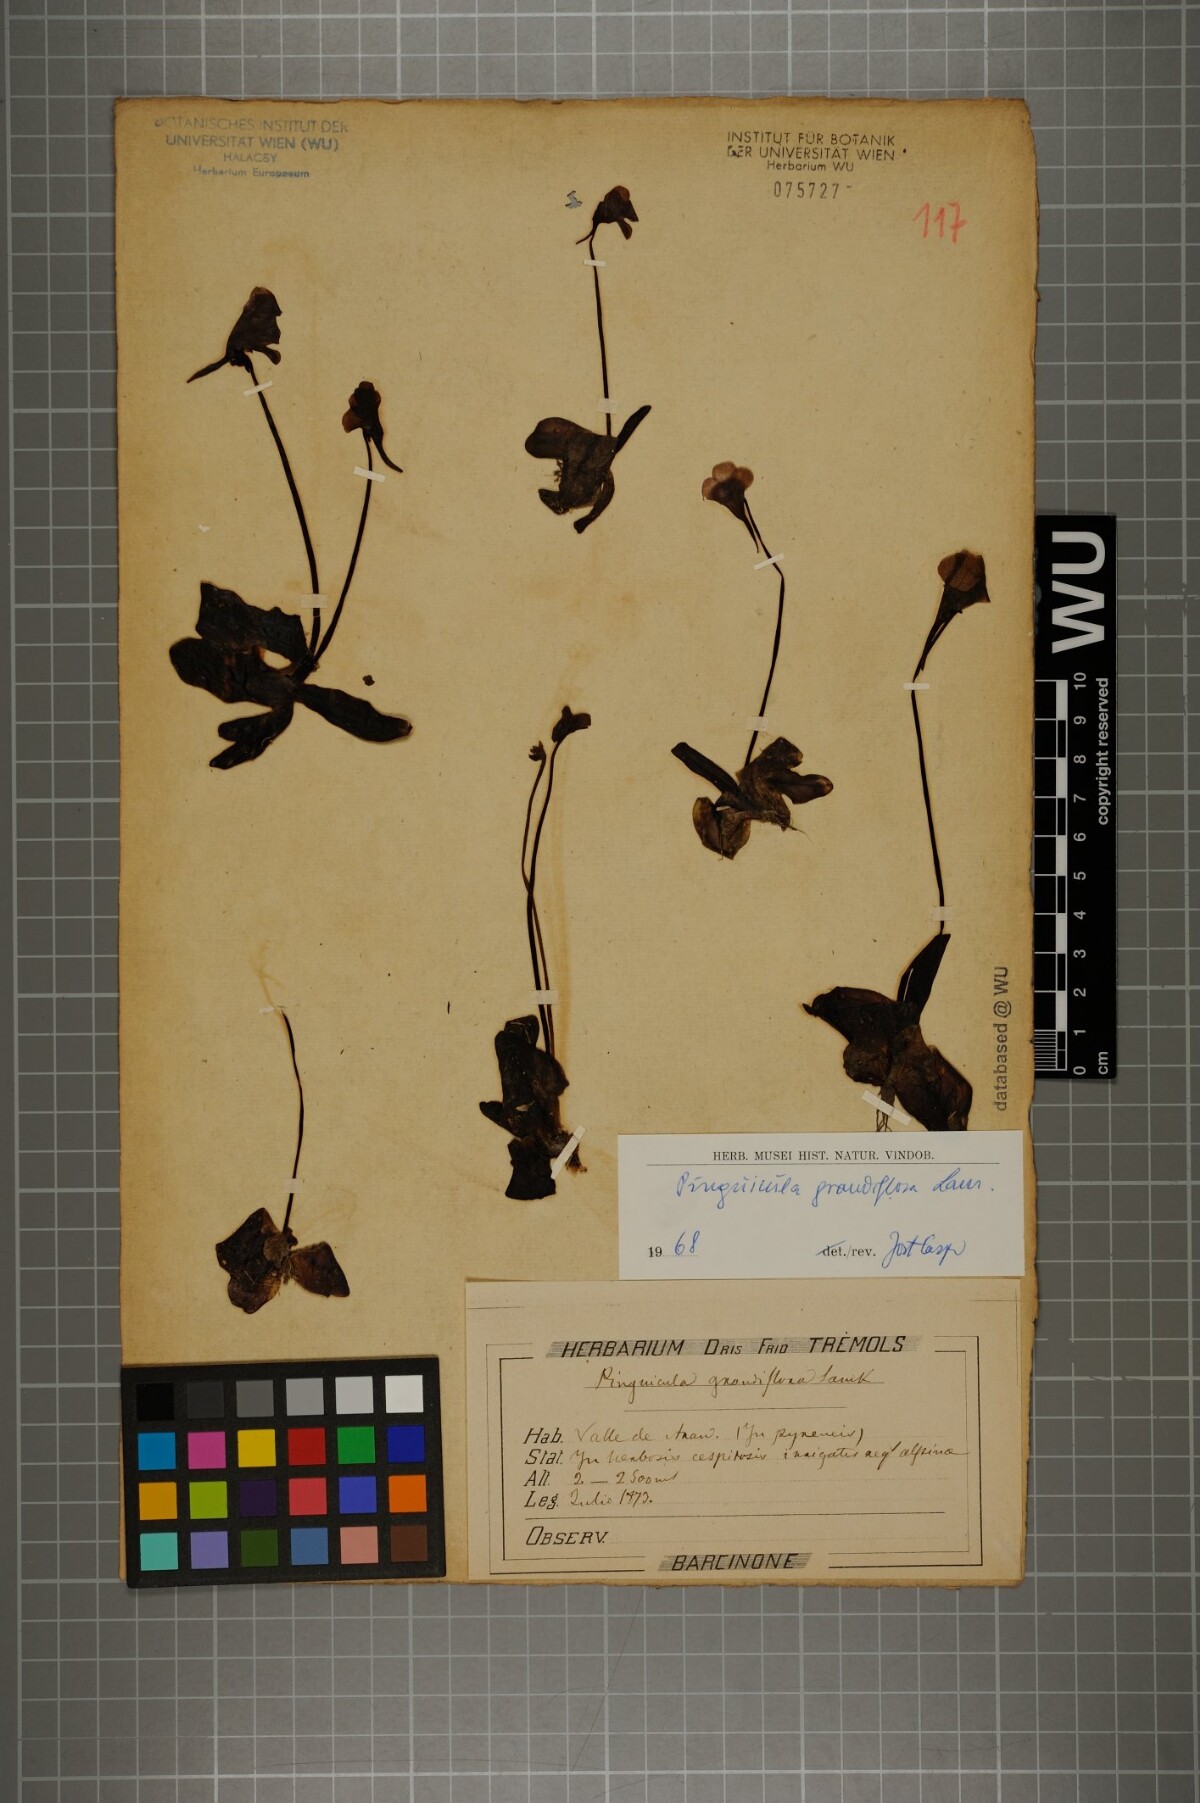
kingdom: Plantae
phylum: Tracheophyta
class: Magnoliopsida
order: Lamiales
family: Lentibulariaceae
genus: Pinguicula
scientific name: Pinguicula grandiflora
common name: Large-flowered butterwort
